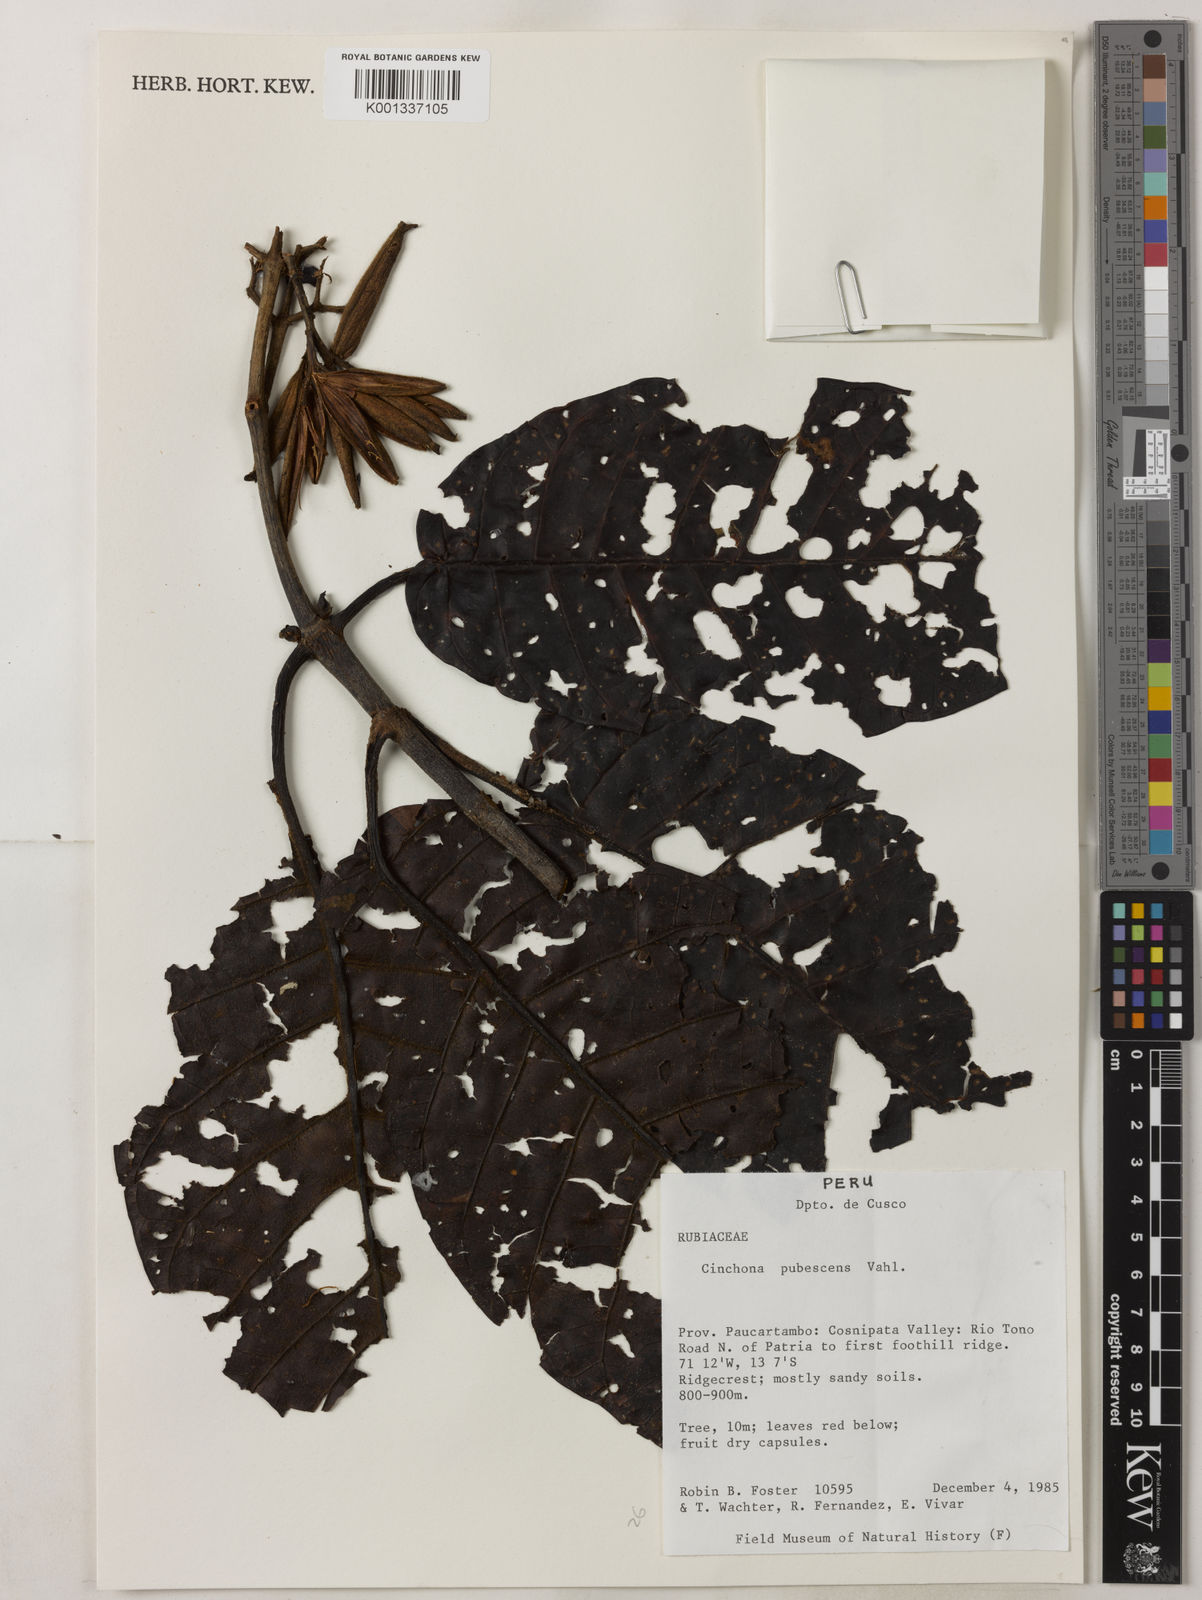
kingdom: Plantae
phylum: Tracheophyta
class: Magnoliopsida
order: Gentianales
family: Rubiaceae
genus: Cinchona
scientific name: Cinchona pubescens
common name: Quinine
